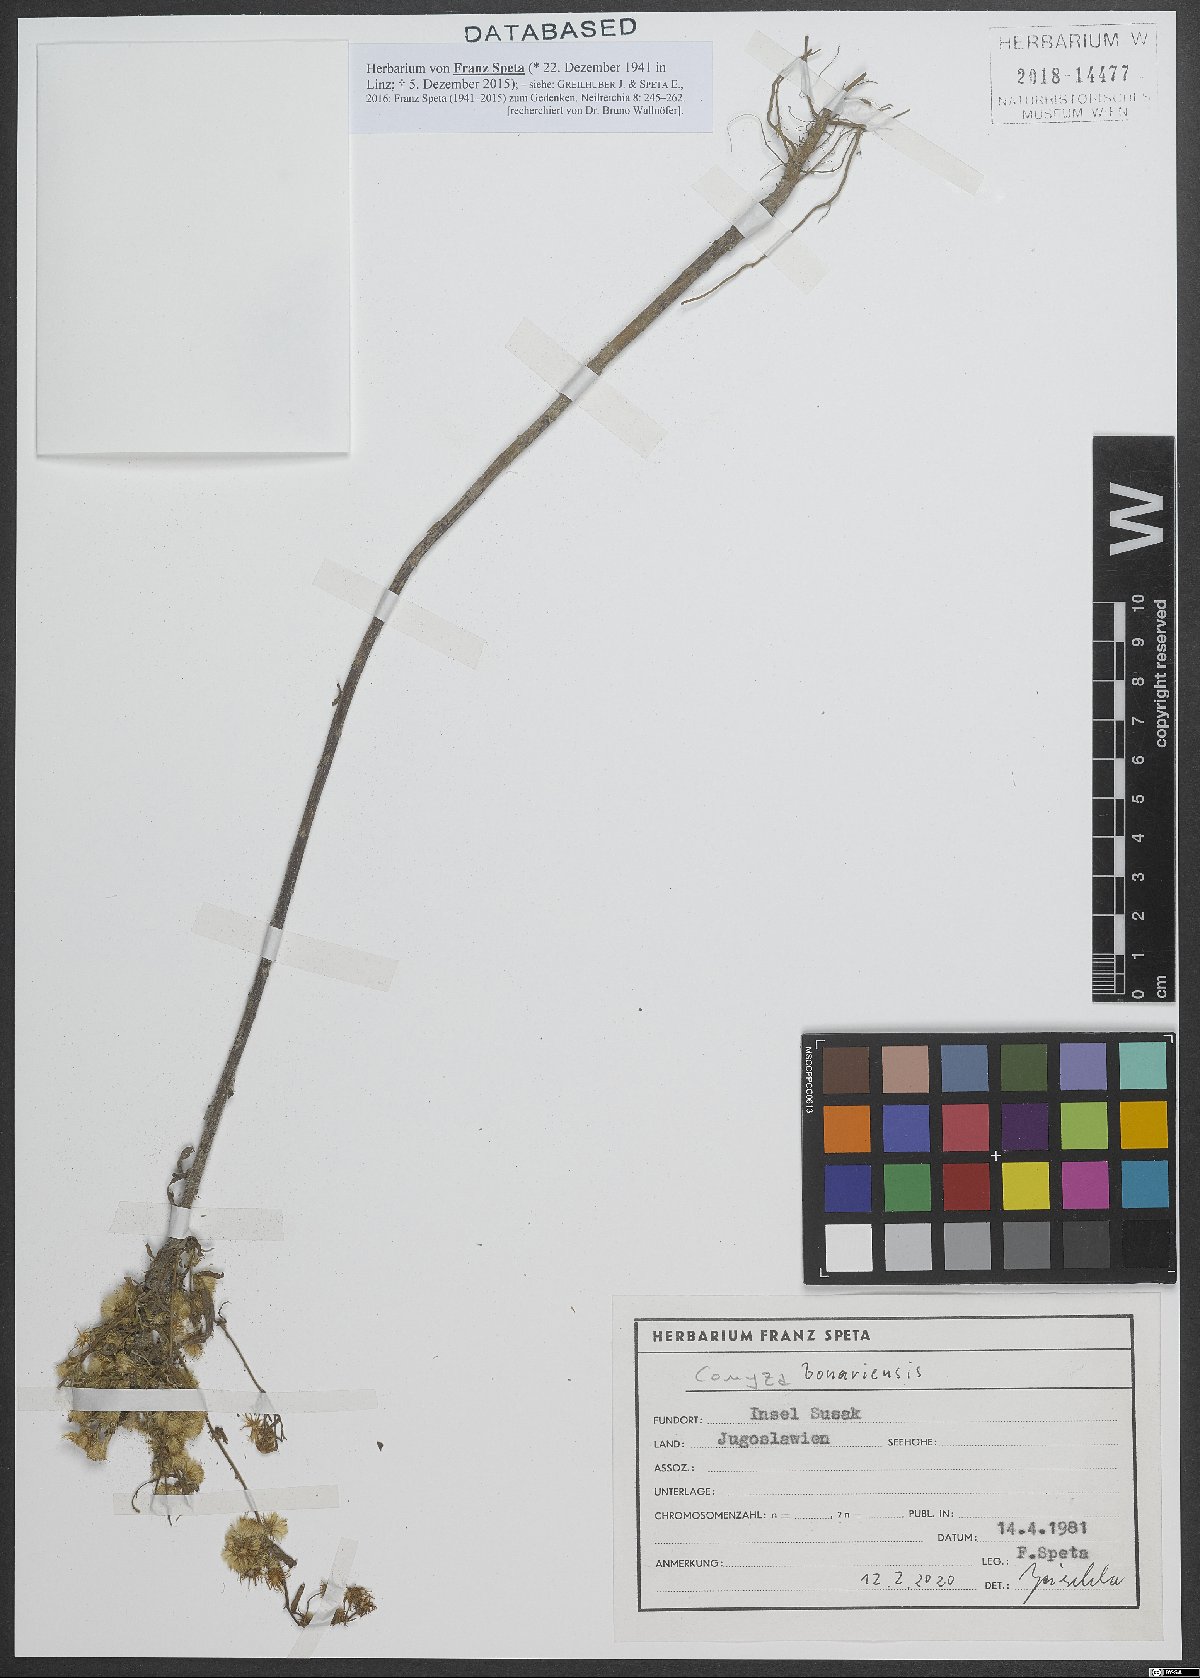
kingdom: Plantae
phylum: Tracheophyta
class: Magnoliopsida
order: Asterales
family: Asteraceae
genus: Erigeron
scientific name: Erigeron bonariensis
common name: Argentine fleabane
